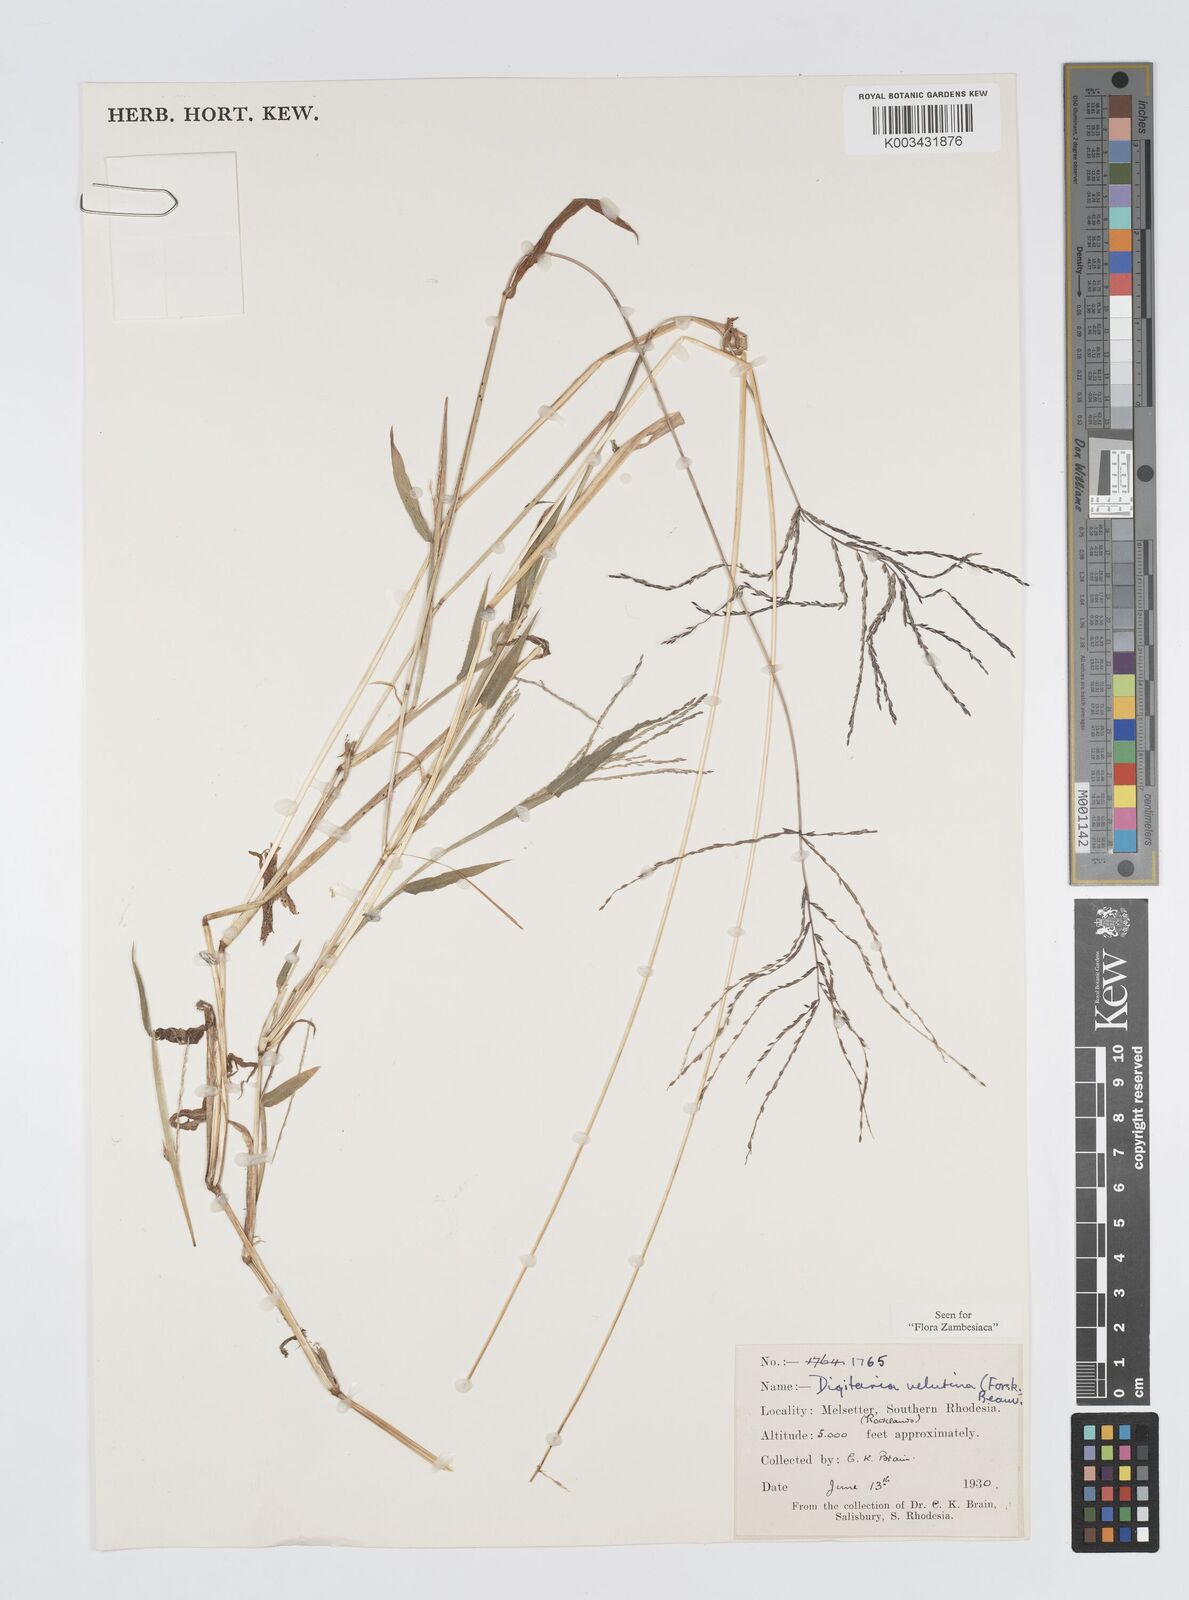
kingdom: Plantae
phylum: Tracheophyta
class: Liliopsida
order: Poales
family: Poaceae
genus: Digitaria
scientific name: Digitaria velutina
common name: Long-plume finger grass
